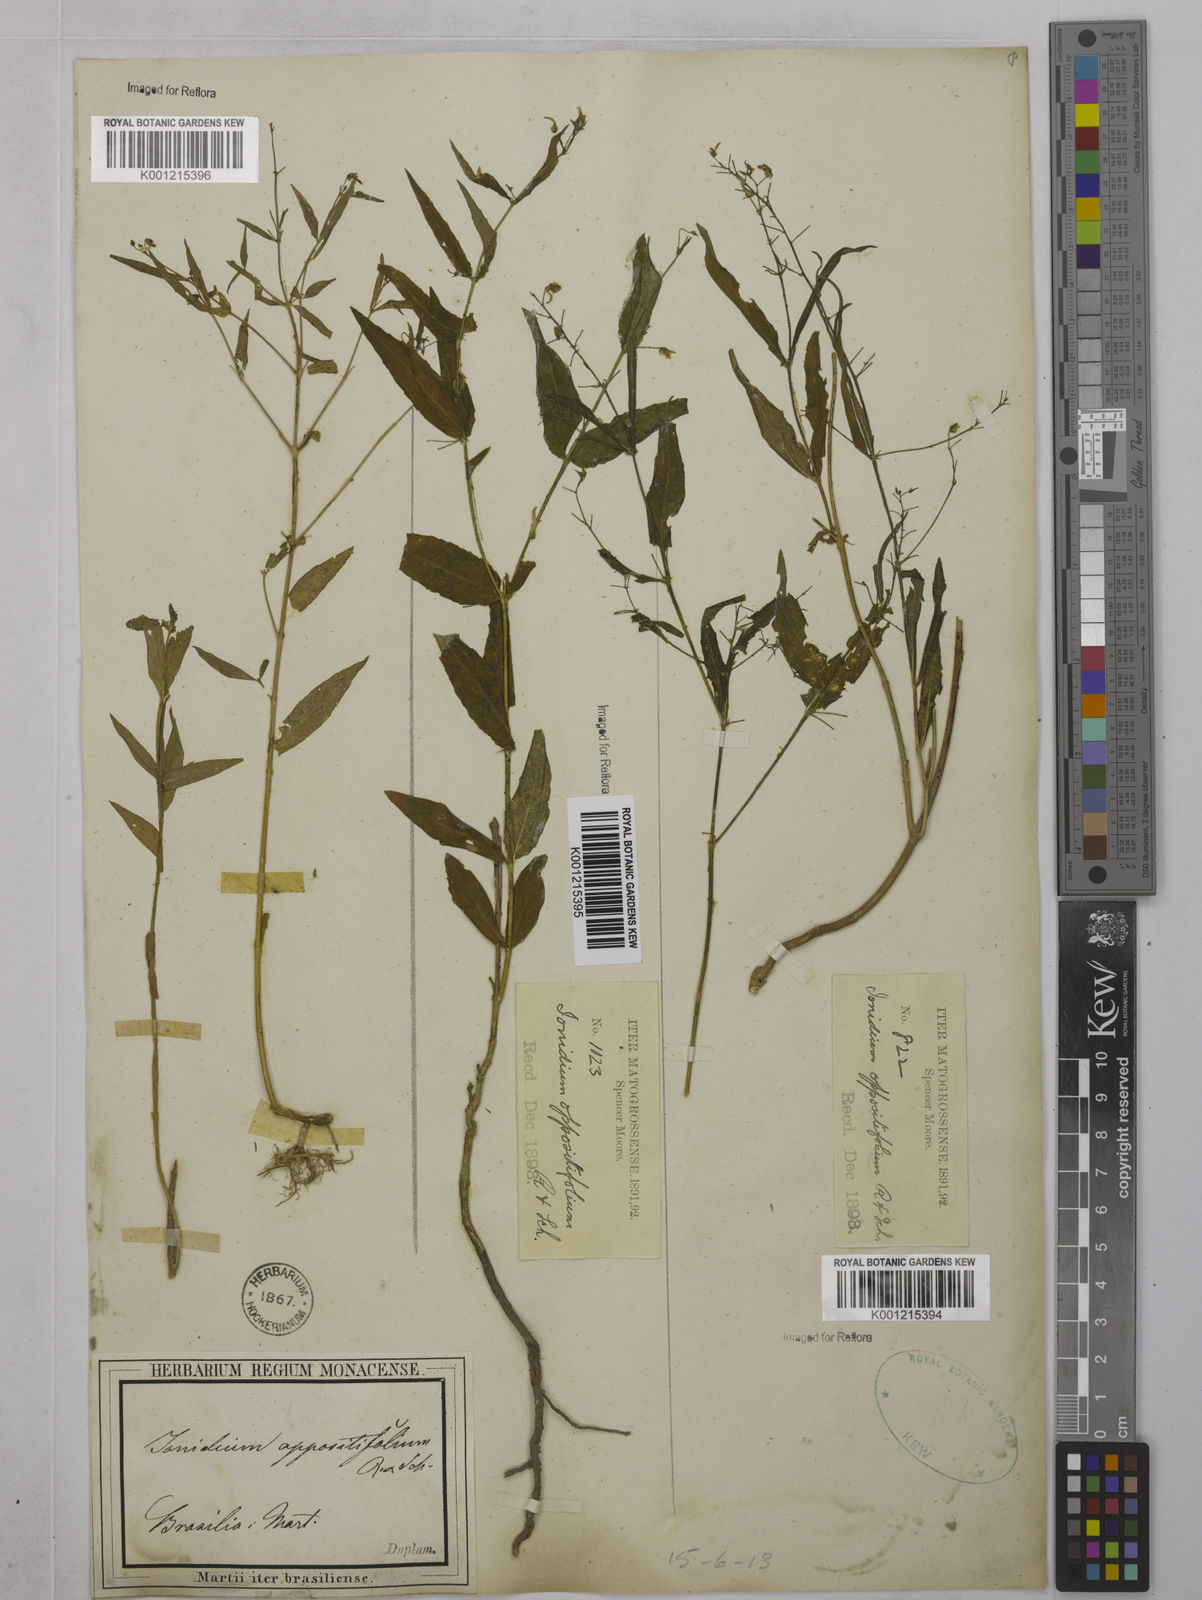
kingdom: Plantae
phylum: Tracheophyta
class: Magnoliopsida
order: Malpighiales
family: Violaceae
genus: Pombalia
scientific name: Pombalia oppositifolia
